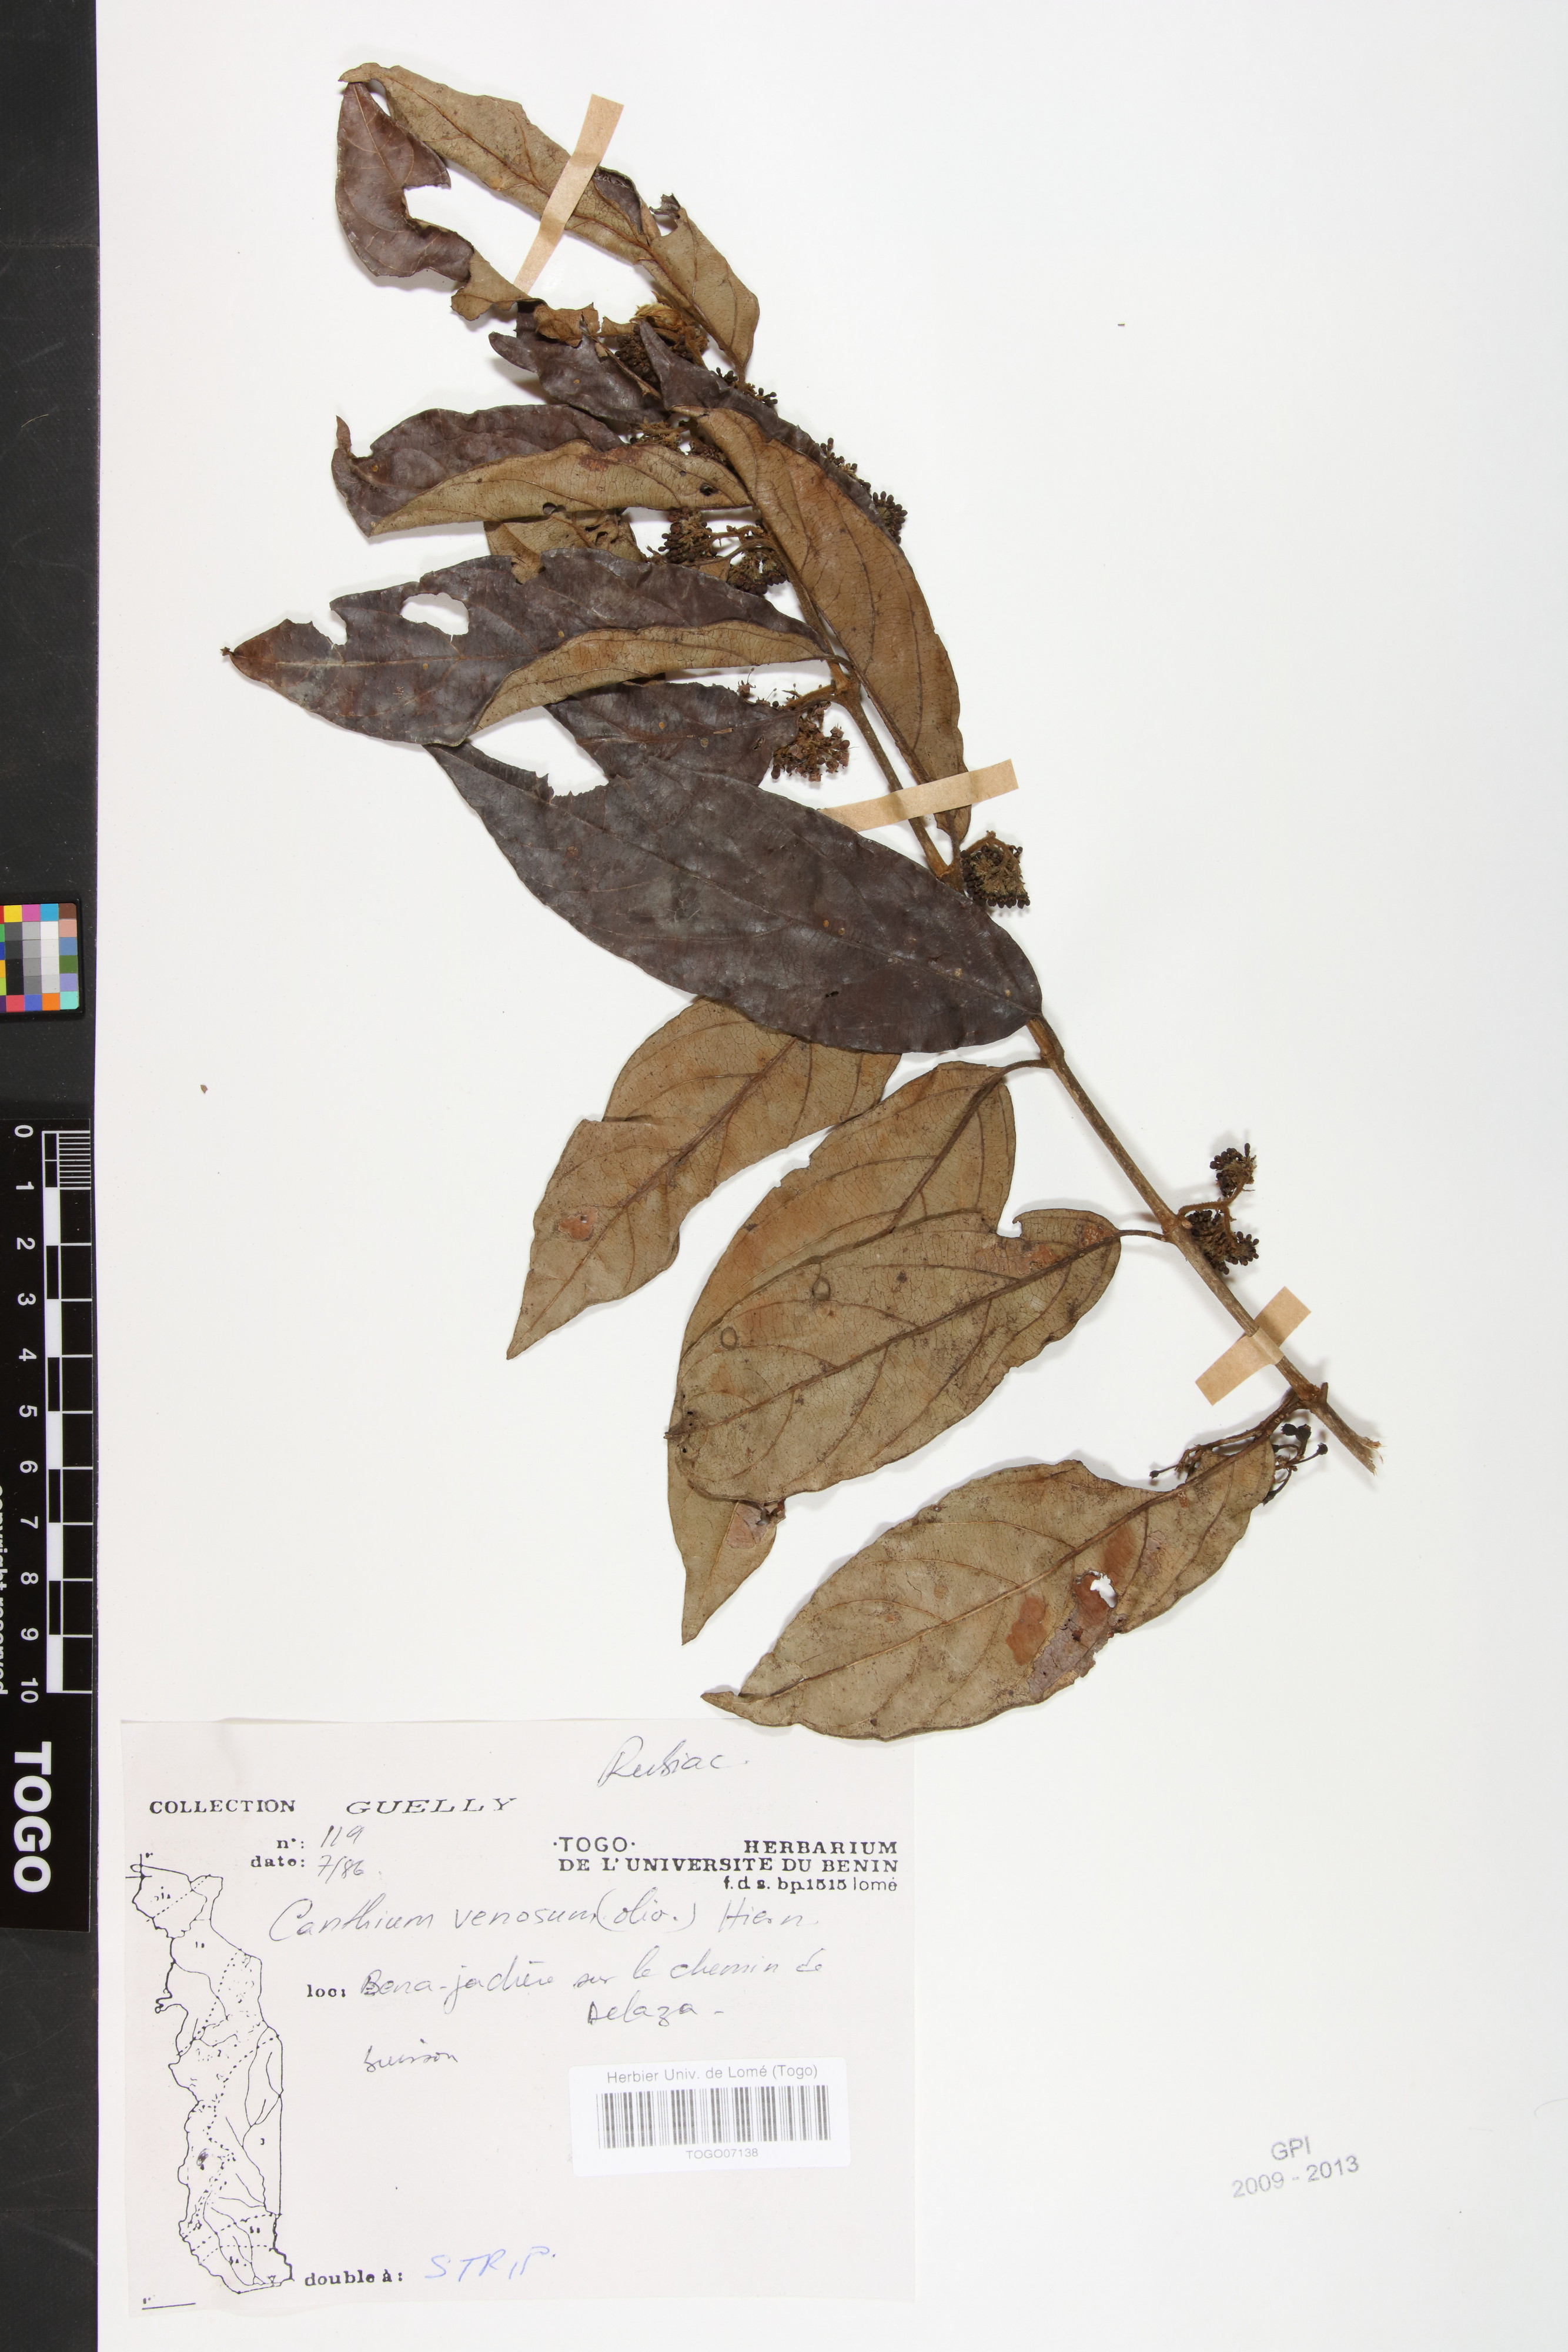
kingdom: Plantae
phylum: Tracheophyta
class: Magnoliopsida
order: Gentianales
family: Rubiaceae
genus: Keetia
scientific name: Keetia venosa
